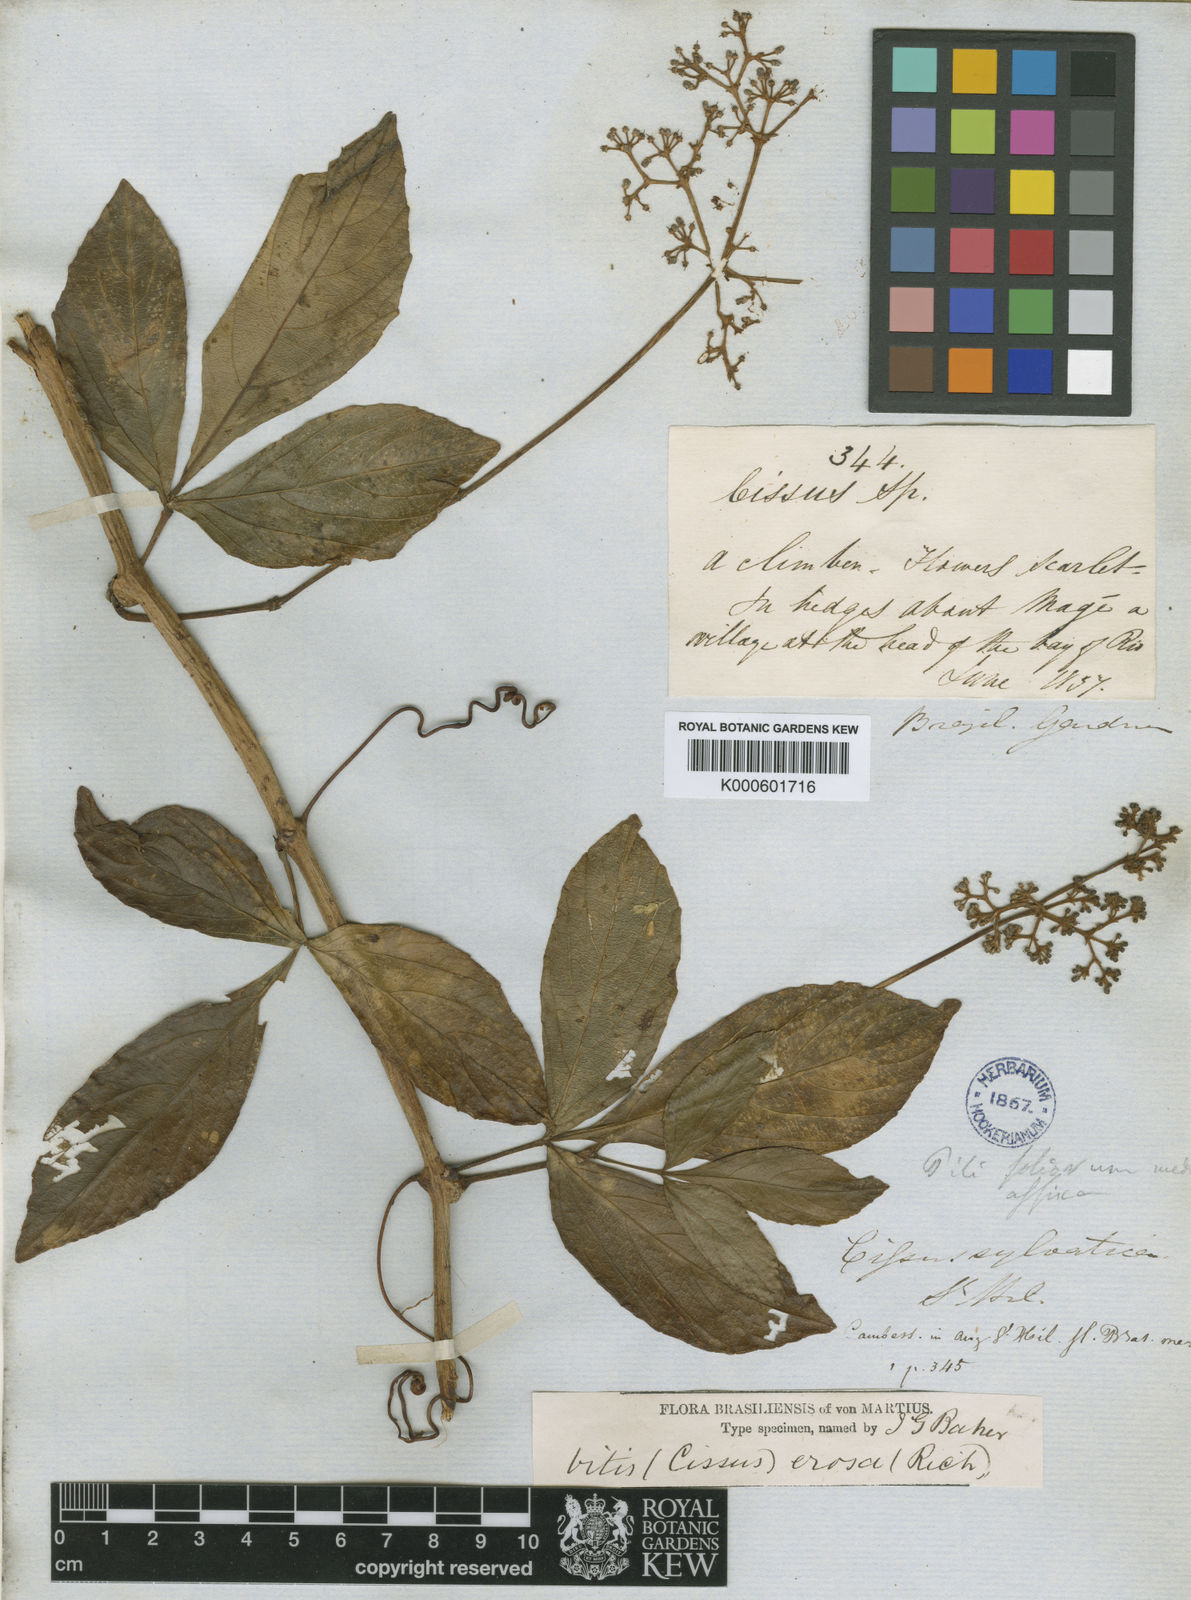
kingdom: Plantae
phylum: Tracheophyta
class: Magnoliopsida
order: Vitales
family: Vitaceae
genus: Cissus
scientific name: Cissus erosa
